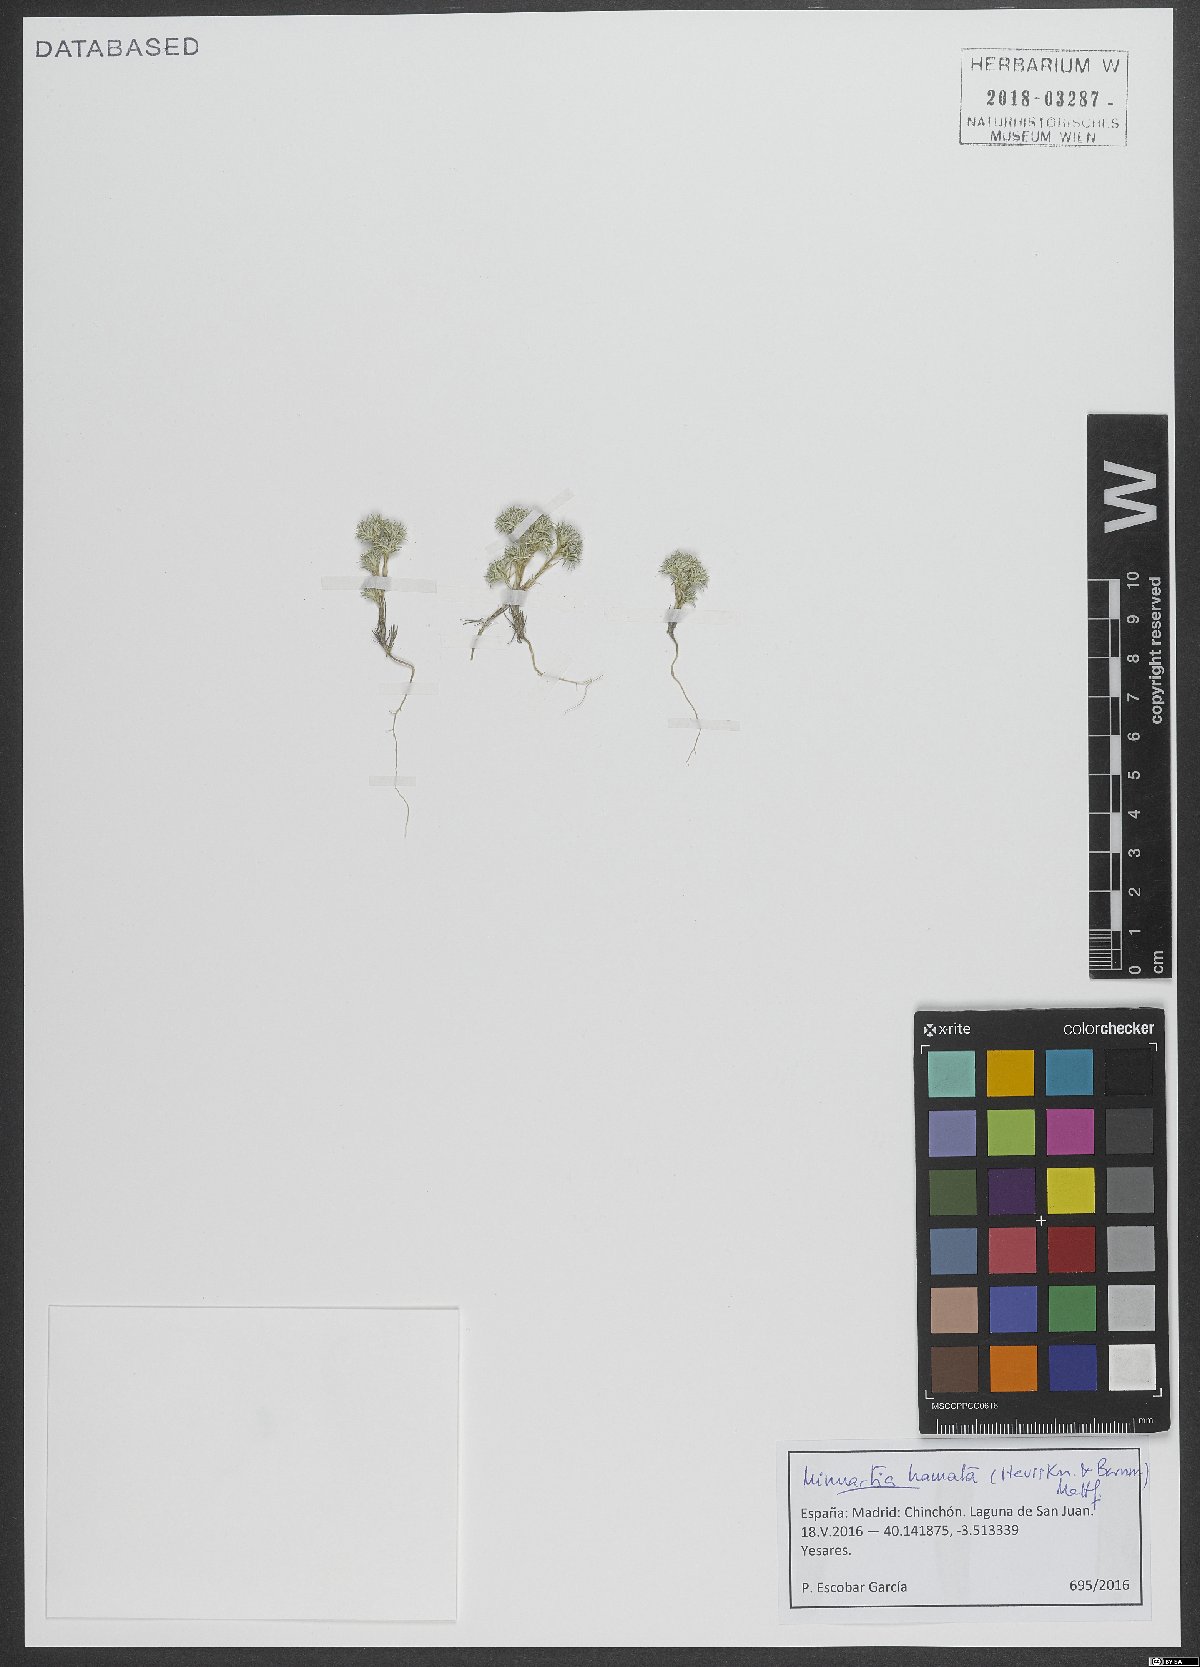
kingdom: Plantae
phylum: Tracheophyta
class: Magnoliopsida
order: Caryophyllales
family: Caryophyllaceae
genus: Minuartia
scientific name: Minuartia hamata
